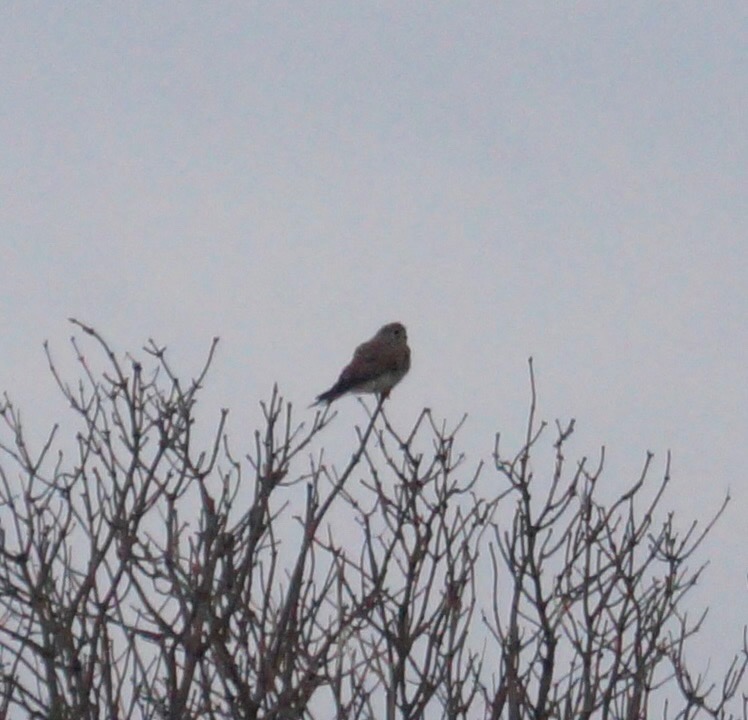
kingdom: Animalia
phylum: Chordata
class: Aves
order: Falconiformes
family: Falconidae
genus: Falco
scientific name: Falco tinnunculus
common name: Tårnfalk
